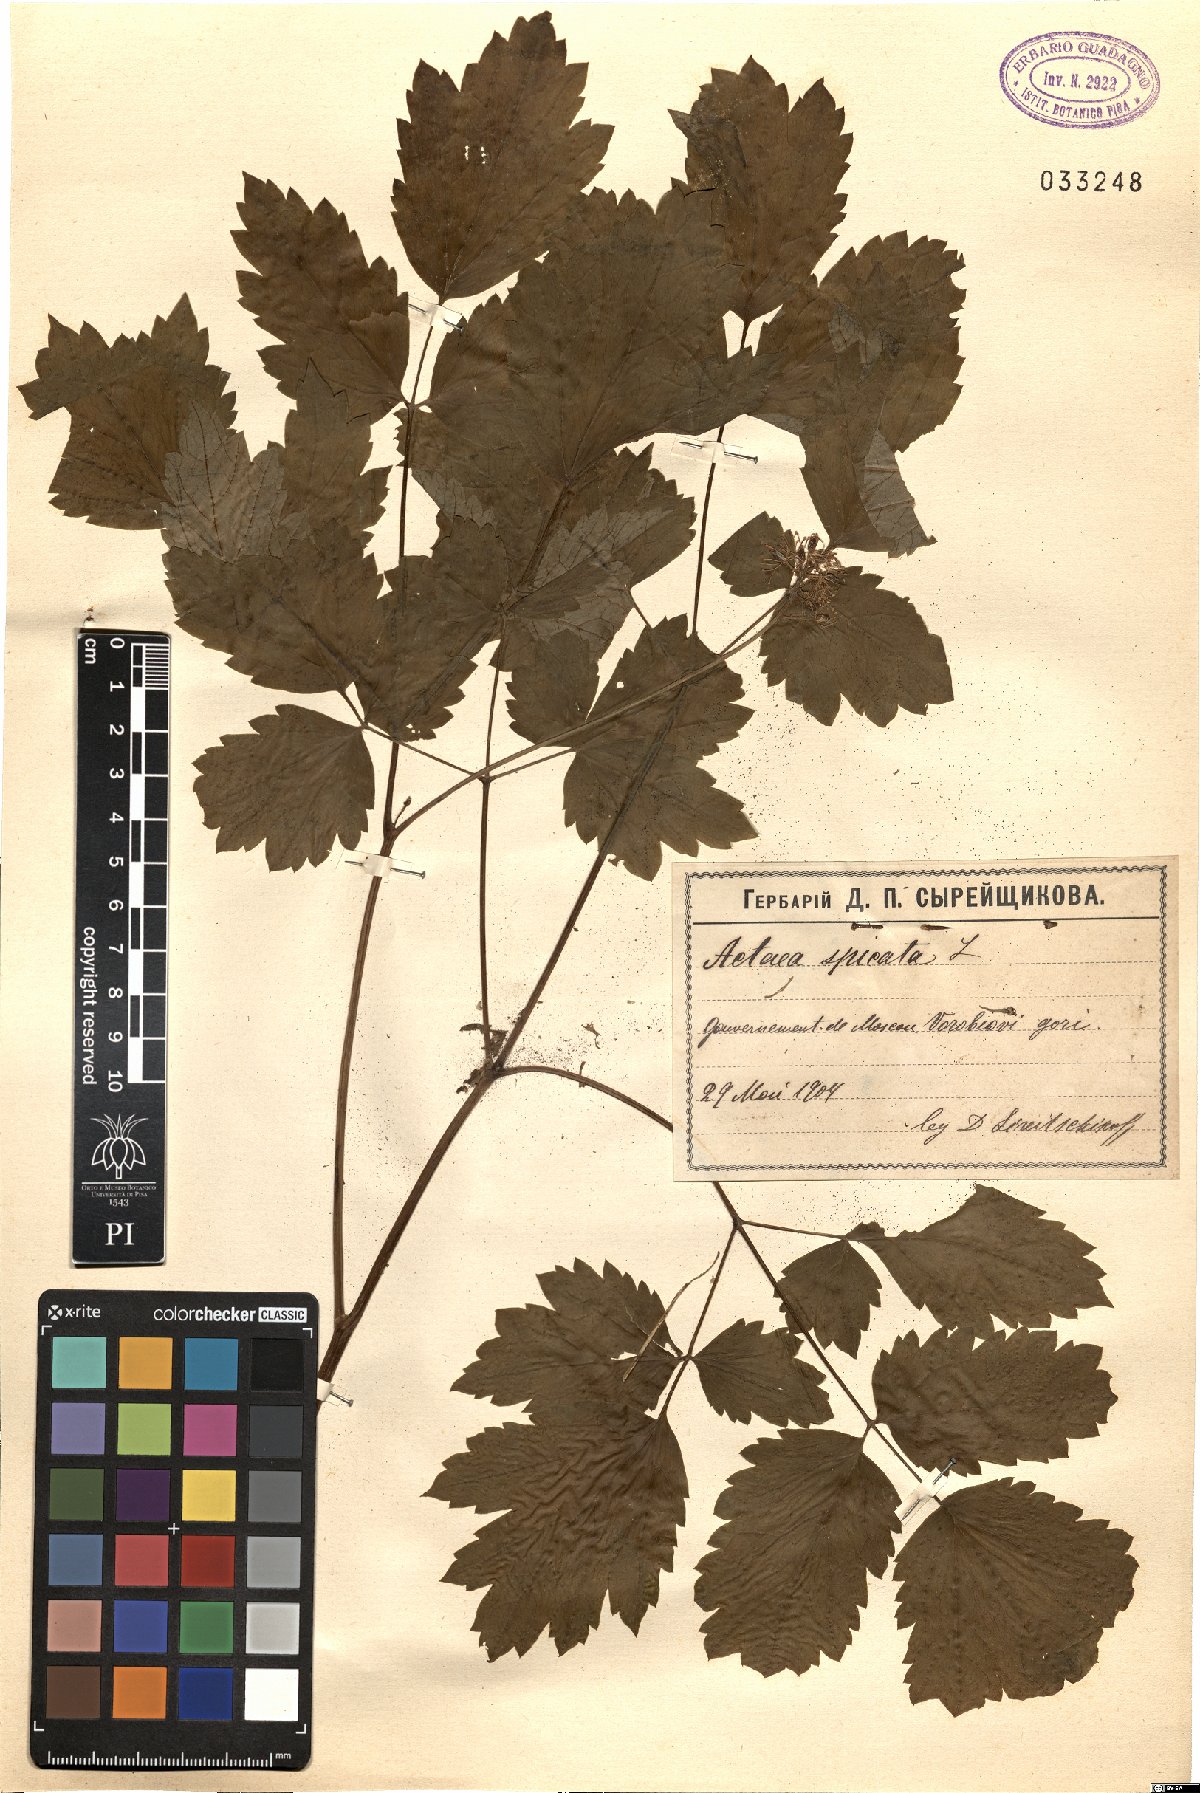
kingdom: Plantae
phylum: Tracheophyta
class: Magnoliopsida
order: Ranunculales
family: Ranunculaceae
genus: Actaea
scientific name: Actaea spicata
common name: Baneberry
